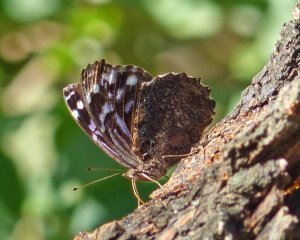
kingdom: Animalia
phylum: Arthropoda
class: Insecta
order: Lepidoptera
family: Nymphalidae
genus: Myscelia
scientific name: Myscelia ethusa
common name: Mexican Bluewing
